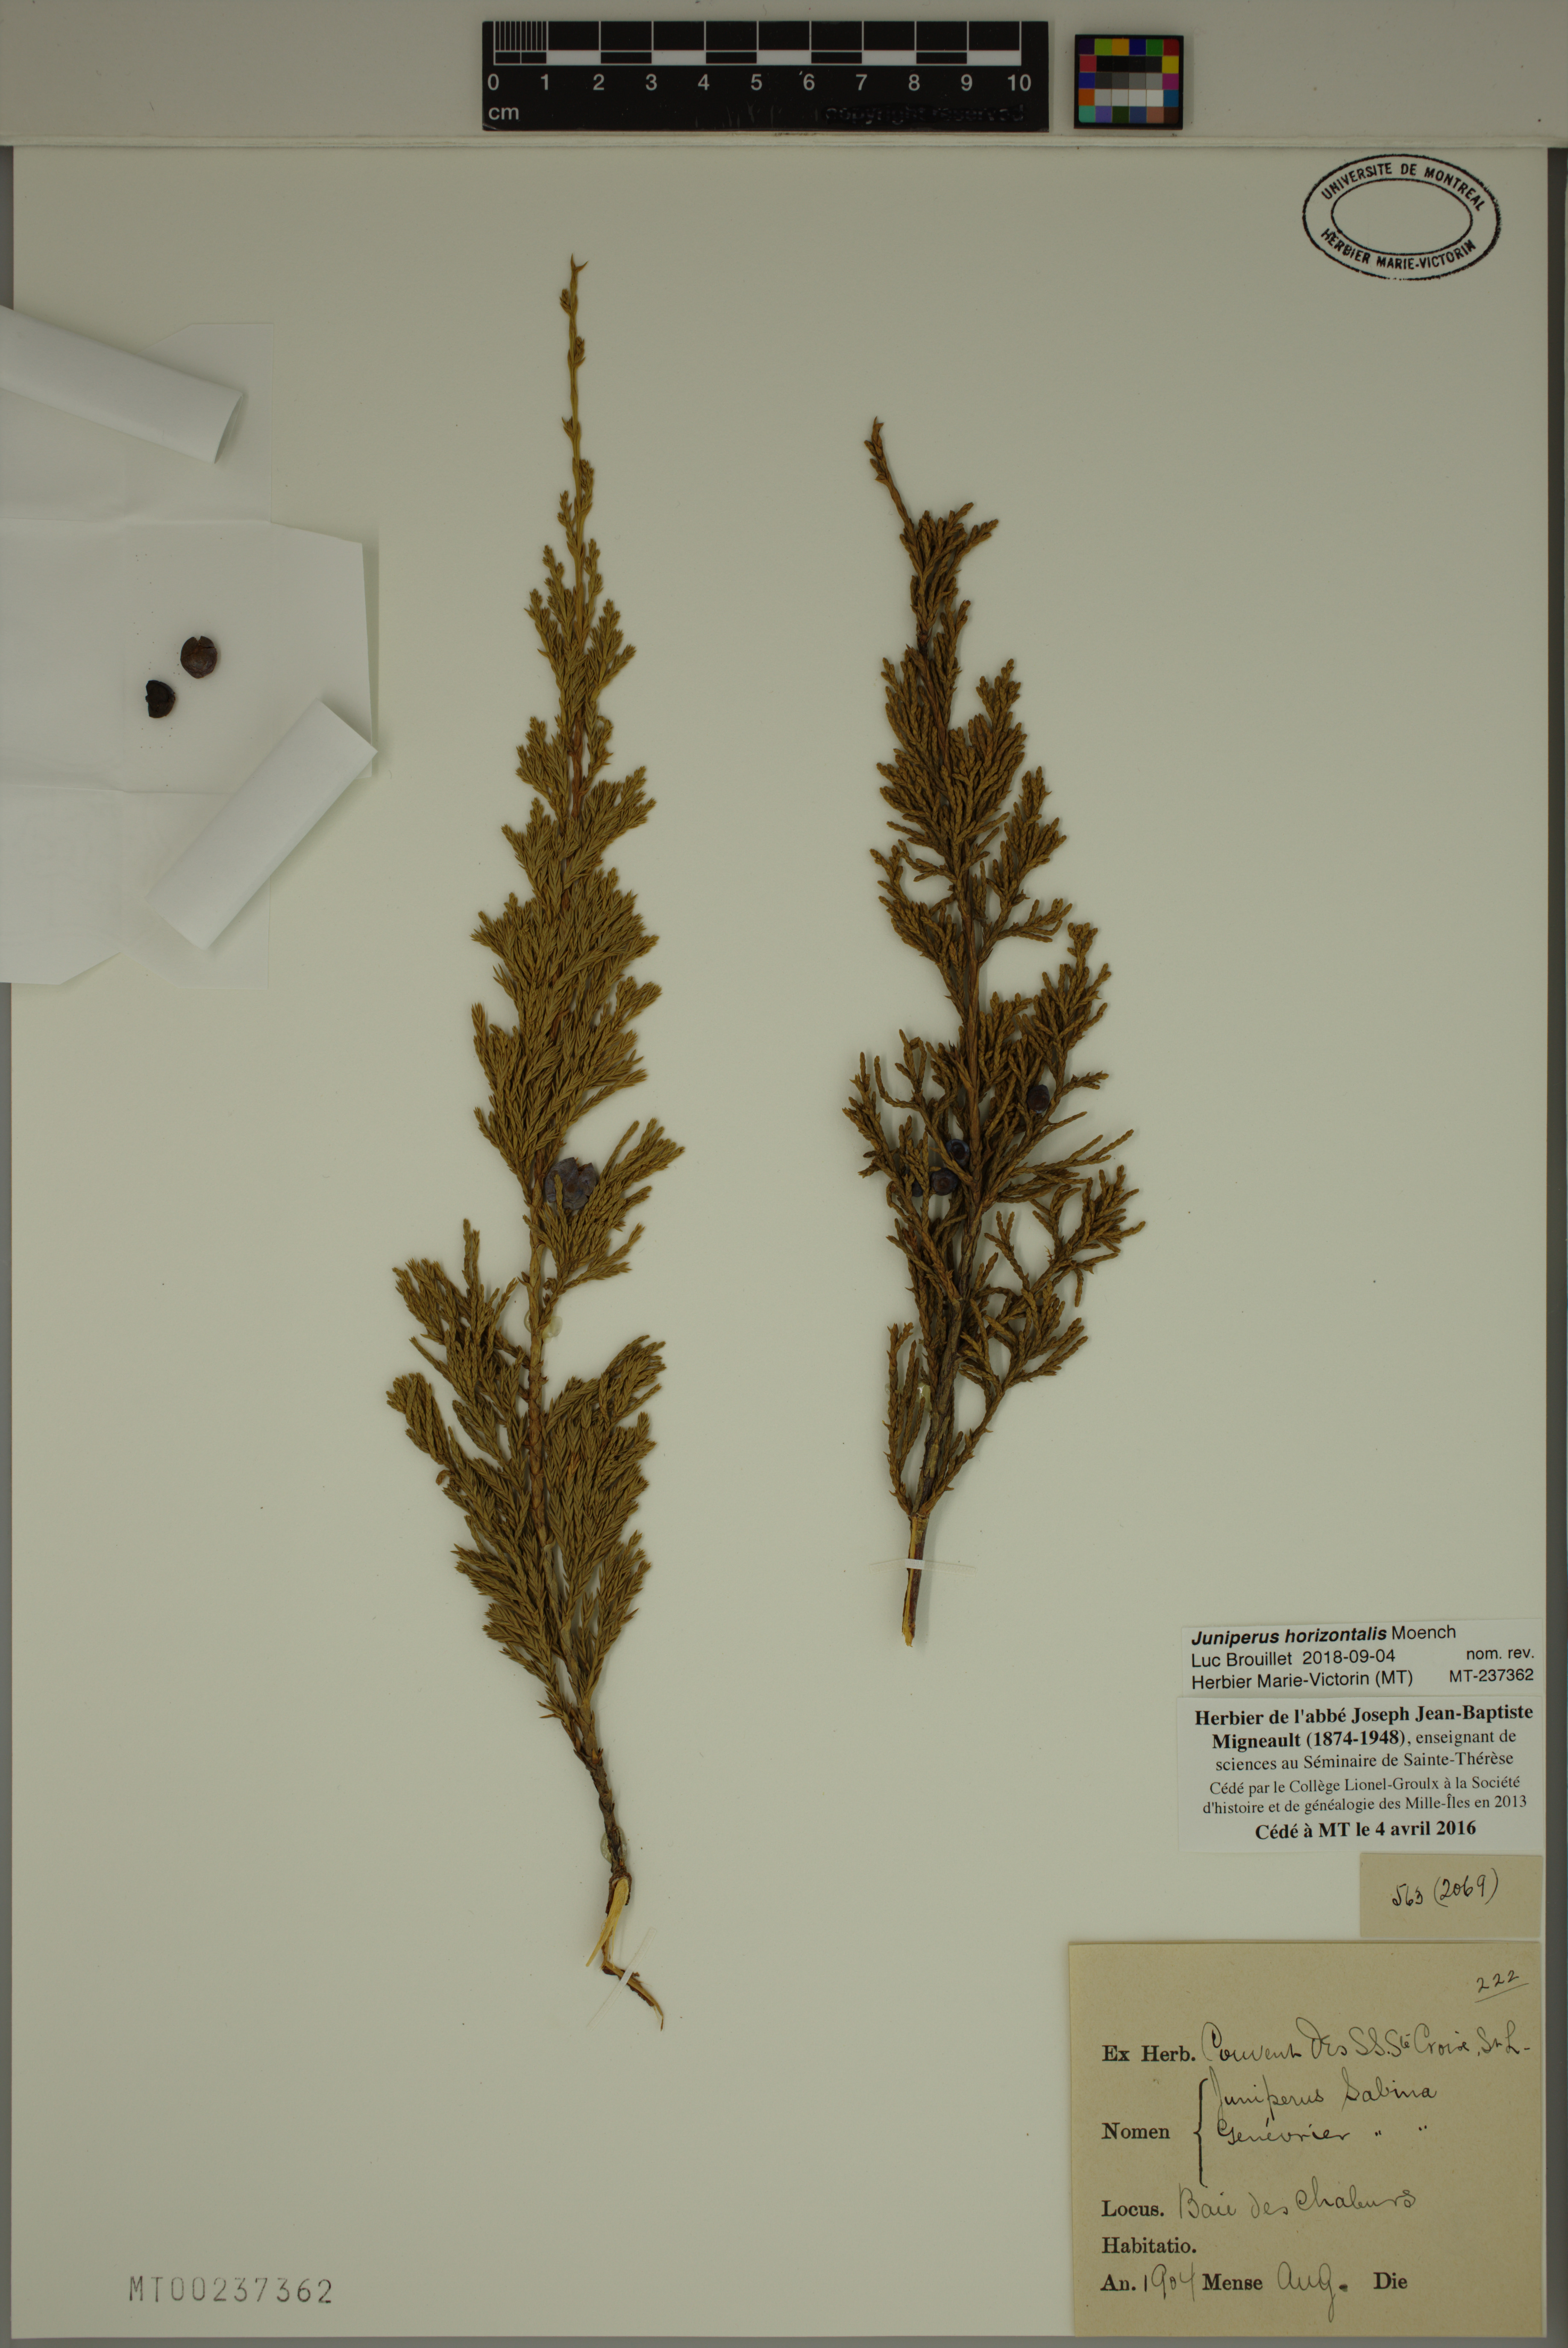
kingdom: Plantae
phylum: Tracheophyta
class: Pinopsida
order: Pinales
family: Cupressaceae
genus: Juniperus
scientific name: Juniperus horizontalis
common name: Creeping juniper
